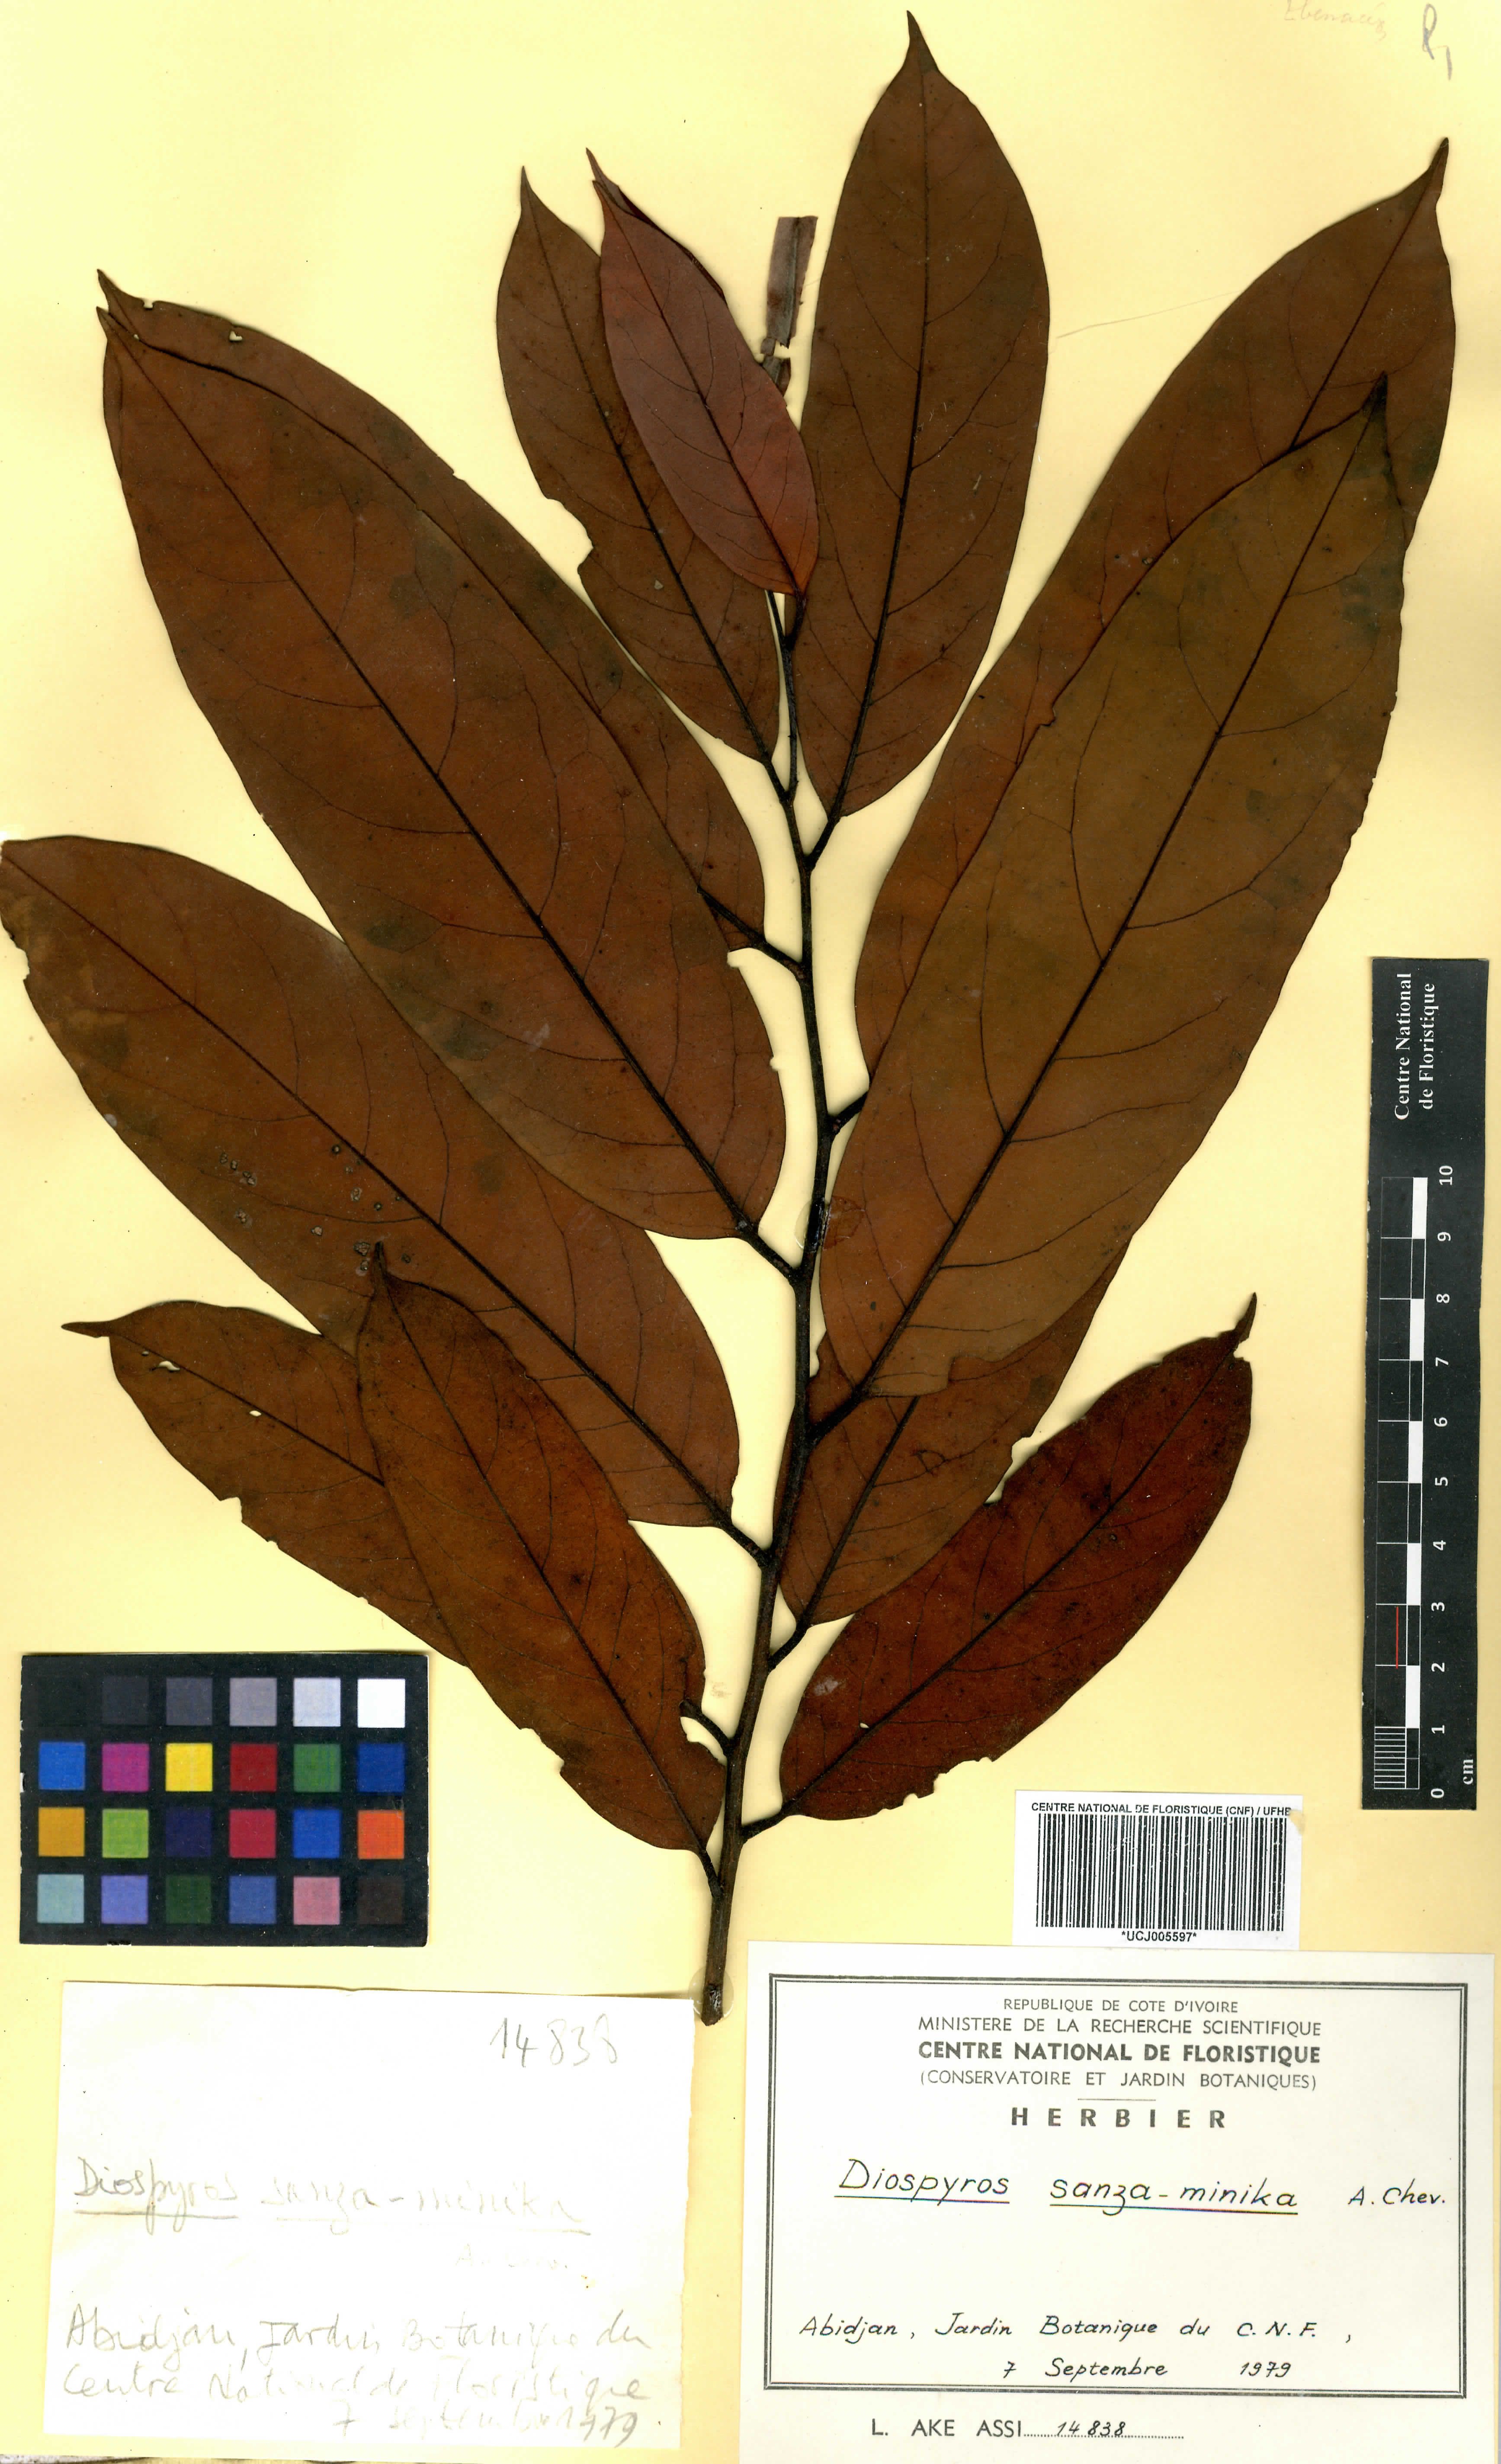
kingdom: Plantae
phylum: Tracheophyta
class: Magnoliopsida
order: Ericales
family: Ebenaceae
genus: Diospyros
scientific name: Diospyros sanza-minika
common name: Flint bark
